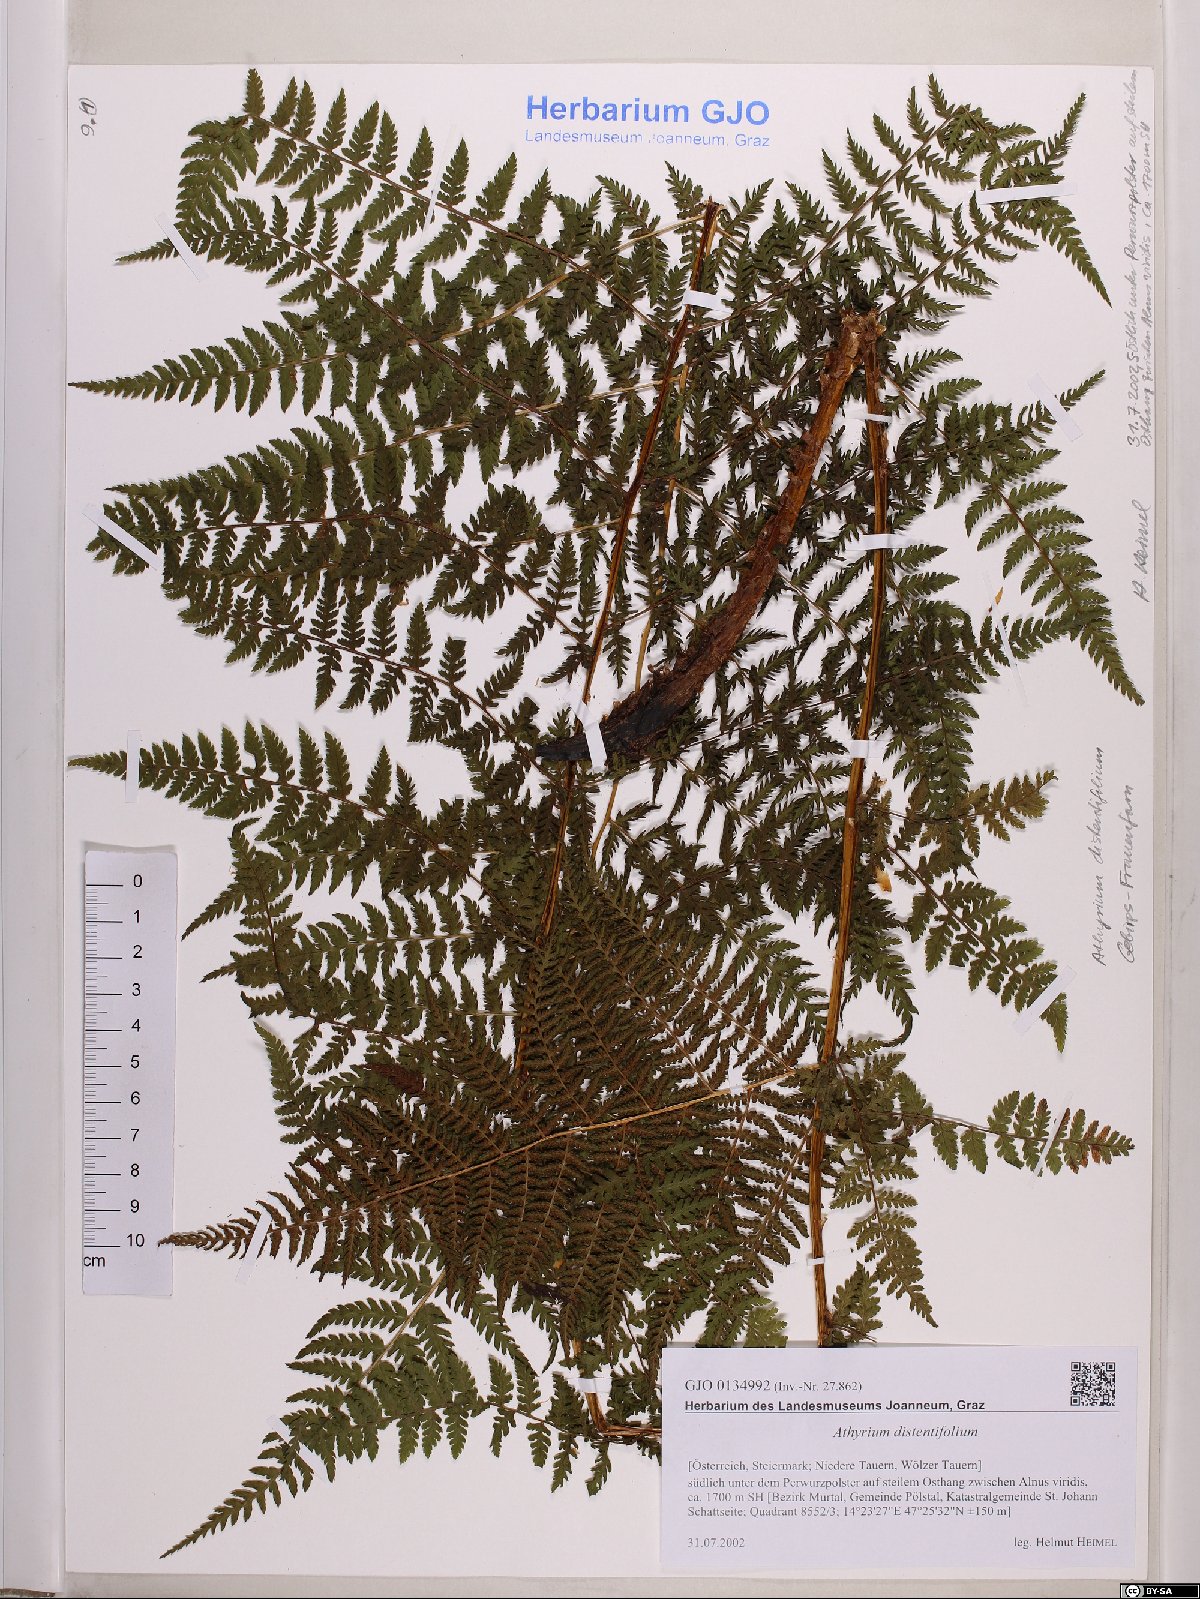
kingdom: Plantae
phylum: Tracheophyta
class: Polypodiopsida
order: Polypodiales
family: Athyriaceae
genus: Pseudathyrium
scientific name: Pseudathyrium alpestre
